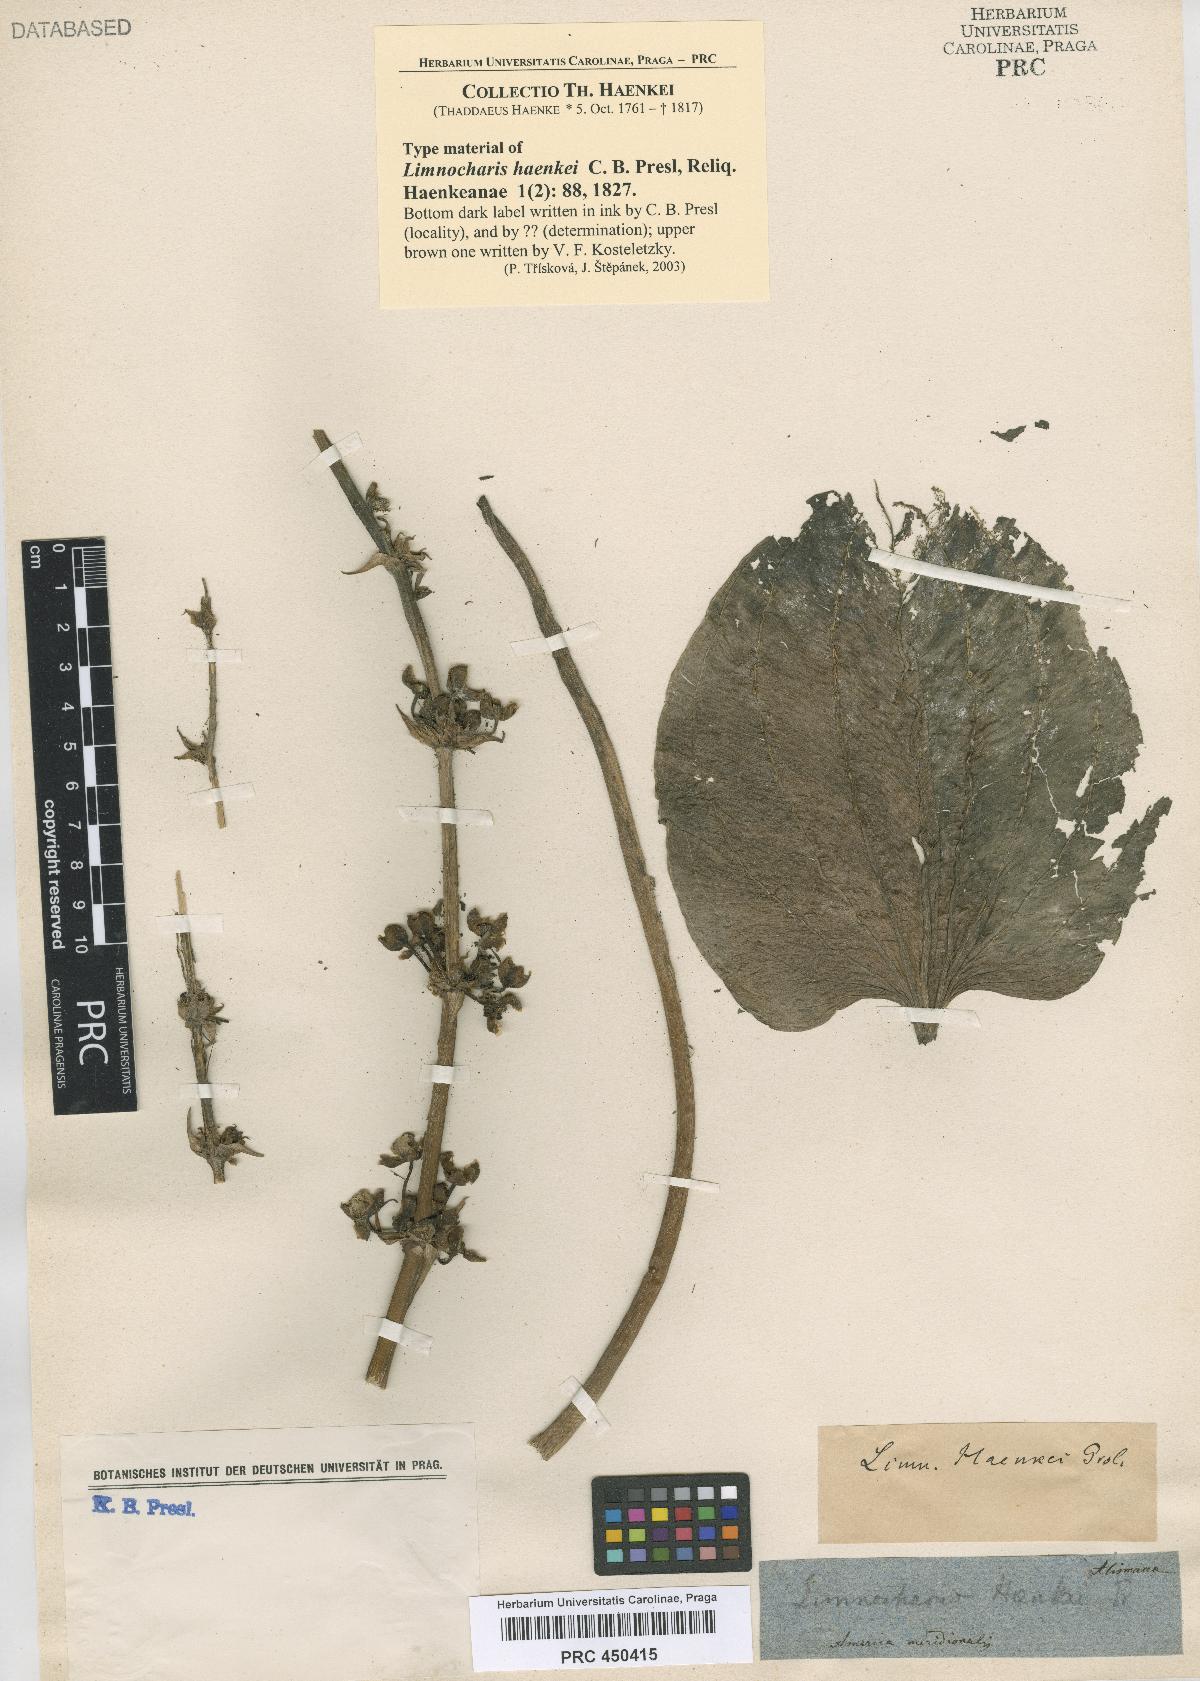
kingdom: Plantae
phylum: Tracheophyta
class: Liliopsida
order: Zingiberales
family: Heliconiaceae
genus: Heliconia
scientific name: Heliconia hirsuta
